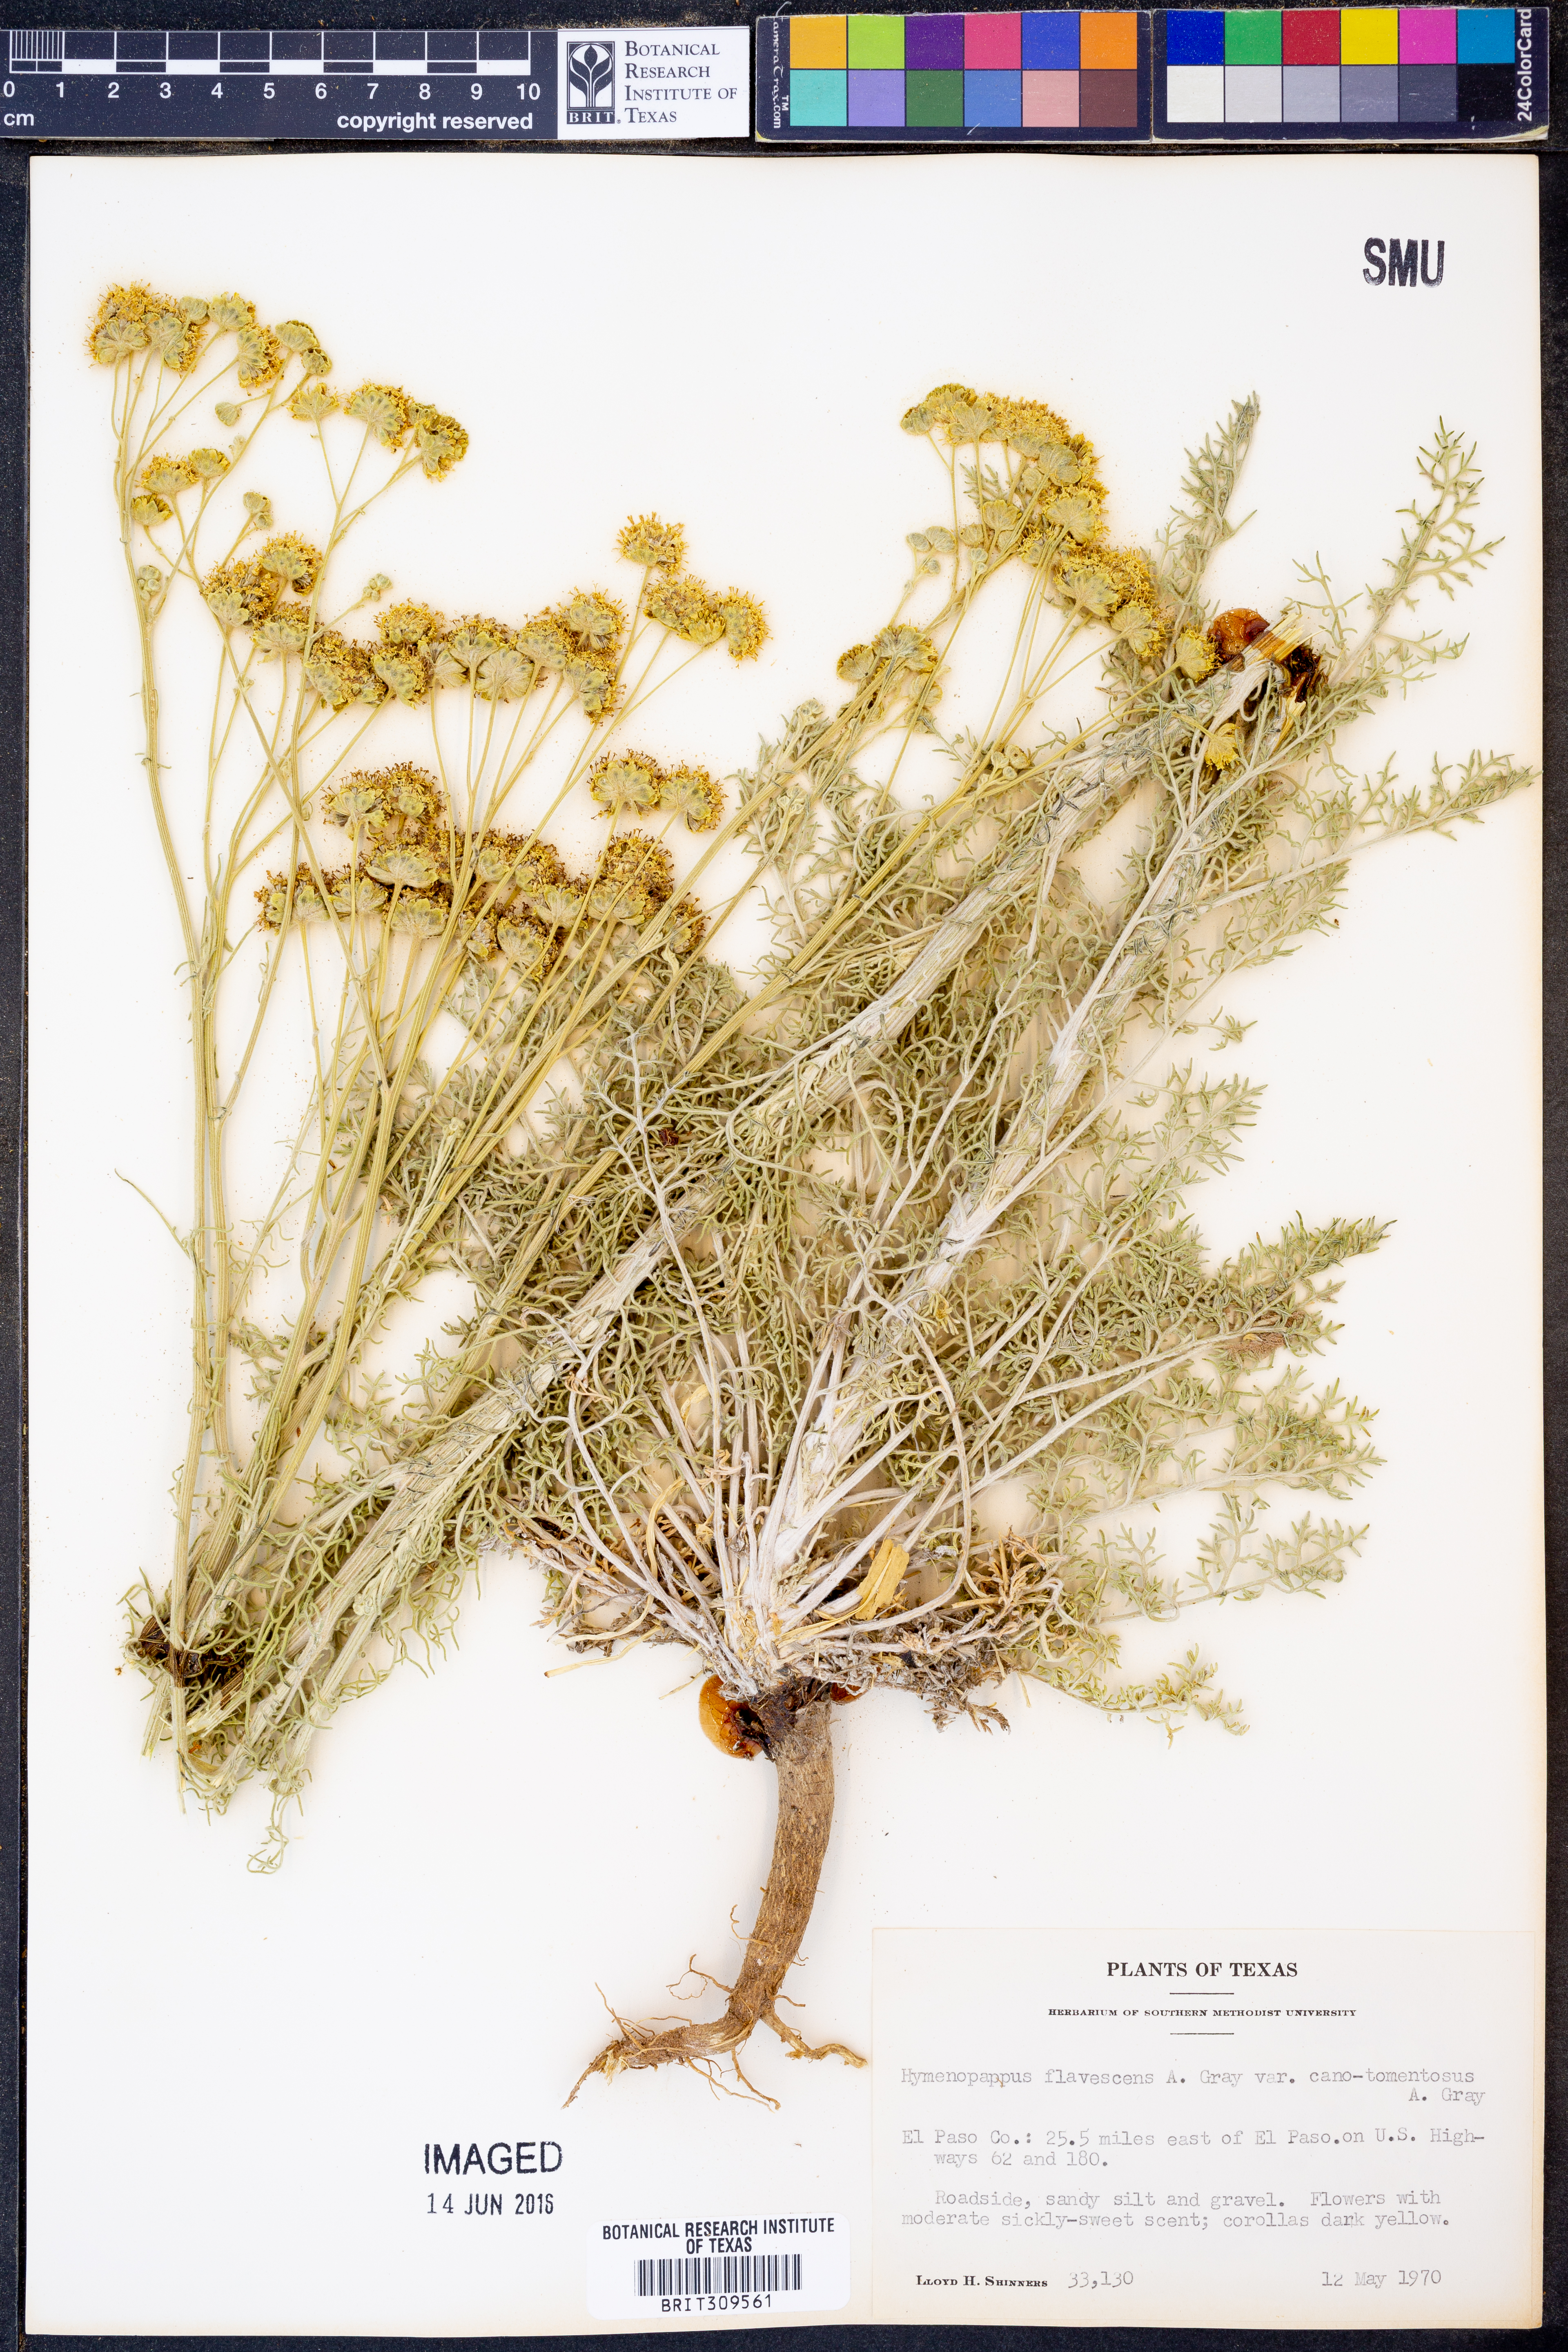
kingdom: Plantae
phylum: Tracheophyta
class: Magnoliopsida
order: Asterales
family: Asteraceae
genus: Hymenopappus
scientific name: Hymenopappus flavescens
